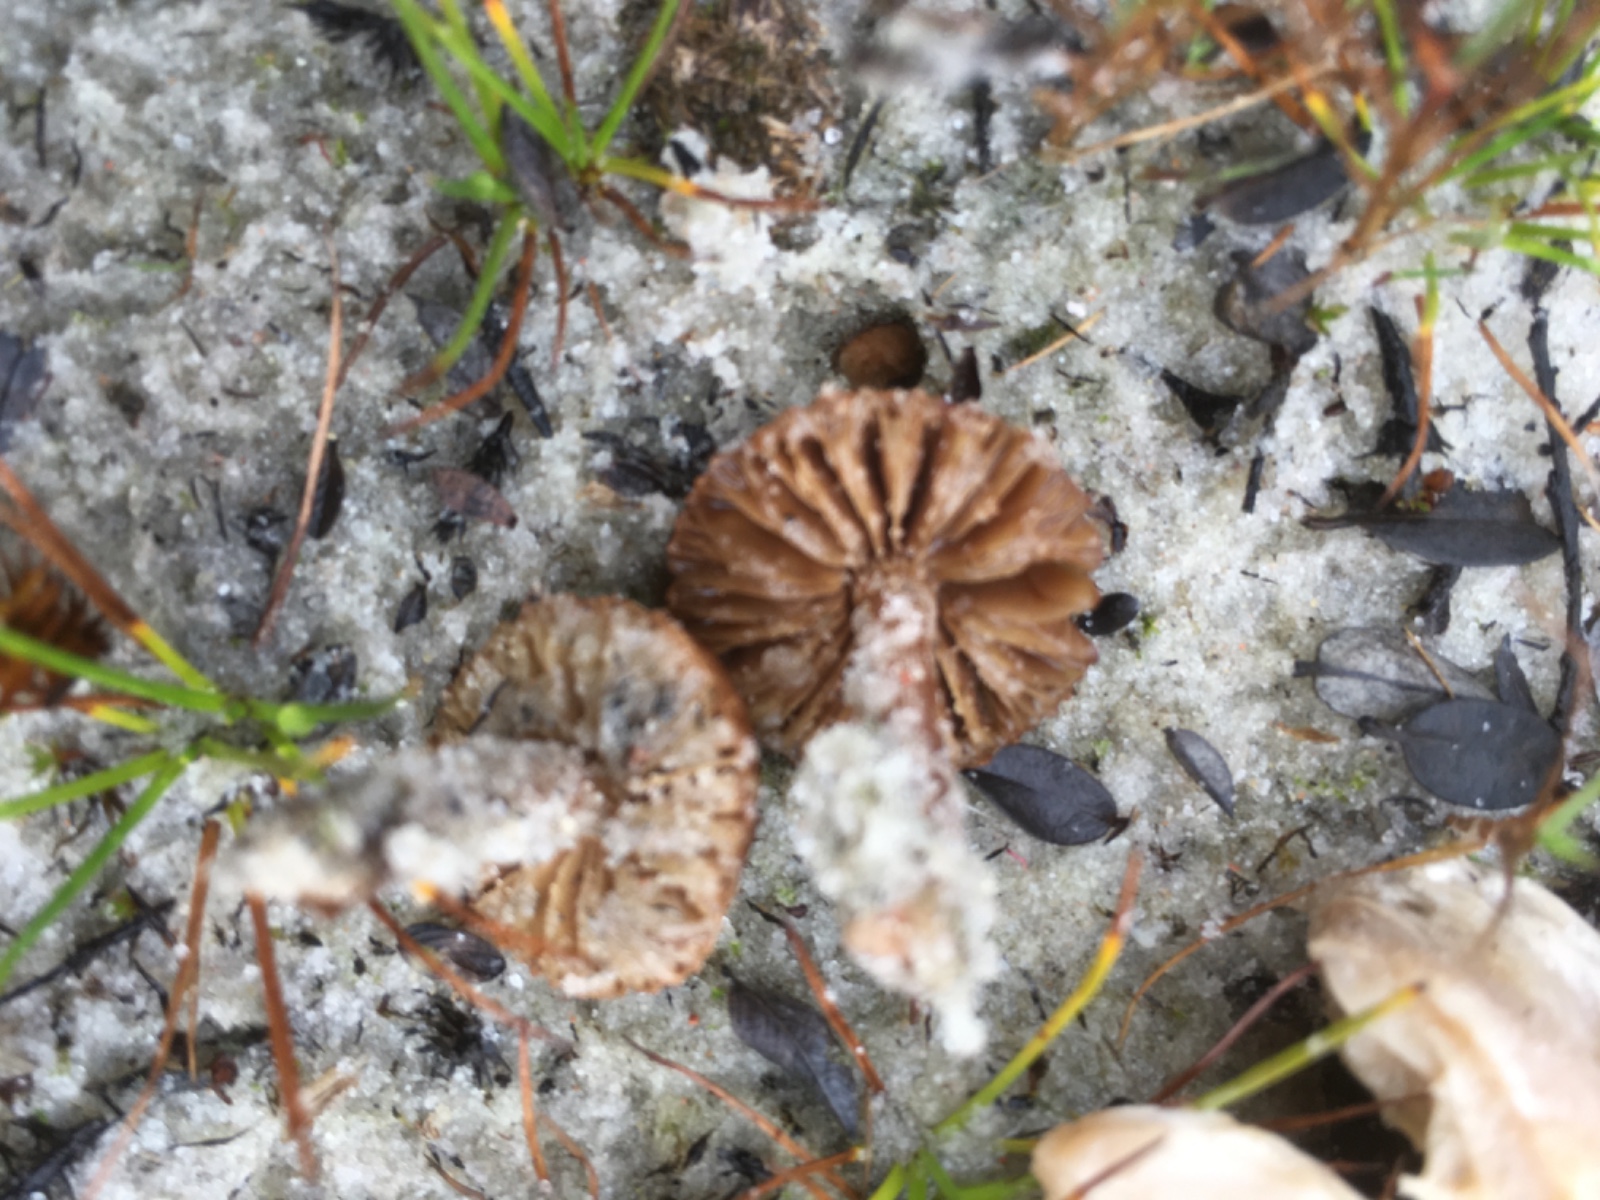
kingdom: Fungi
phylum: Basidiomycota
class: Agaricomycetes
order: Agaricales
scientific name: Agaricales
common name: champignonordenen
